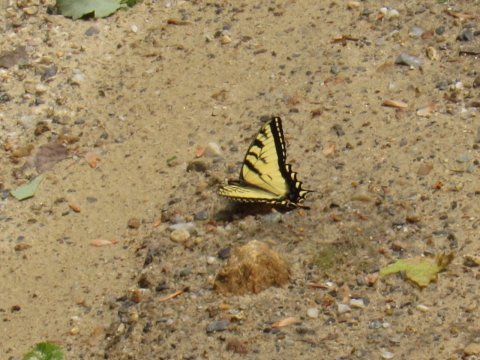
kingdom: Animalia
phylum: Arthropoda
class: Insecta
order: Lepidoptera
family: Papilionidae
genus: Pterourus
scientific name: Pterourus canadensis
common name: Canadian Tiger Swallowtail
